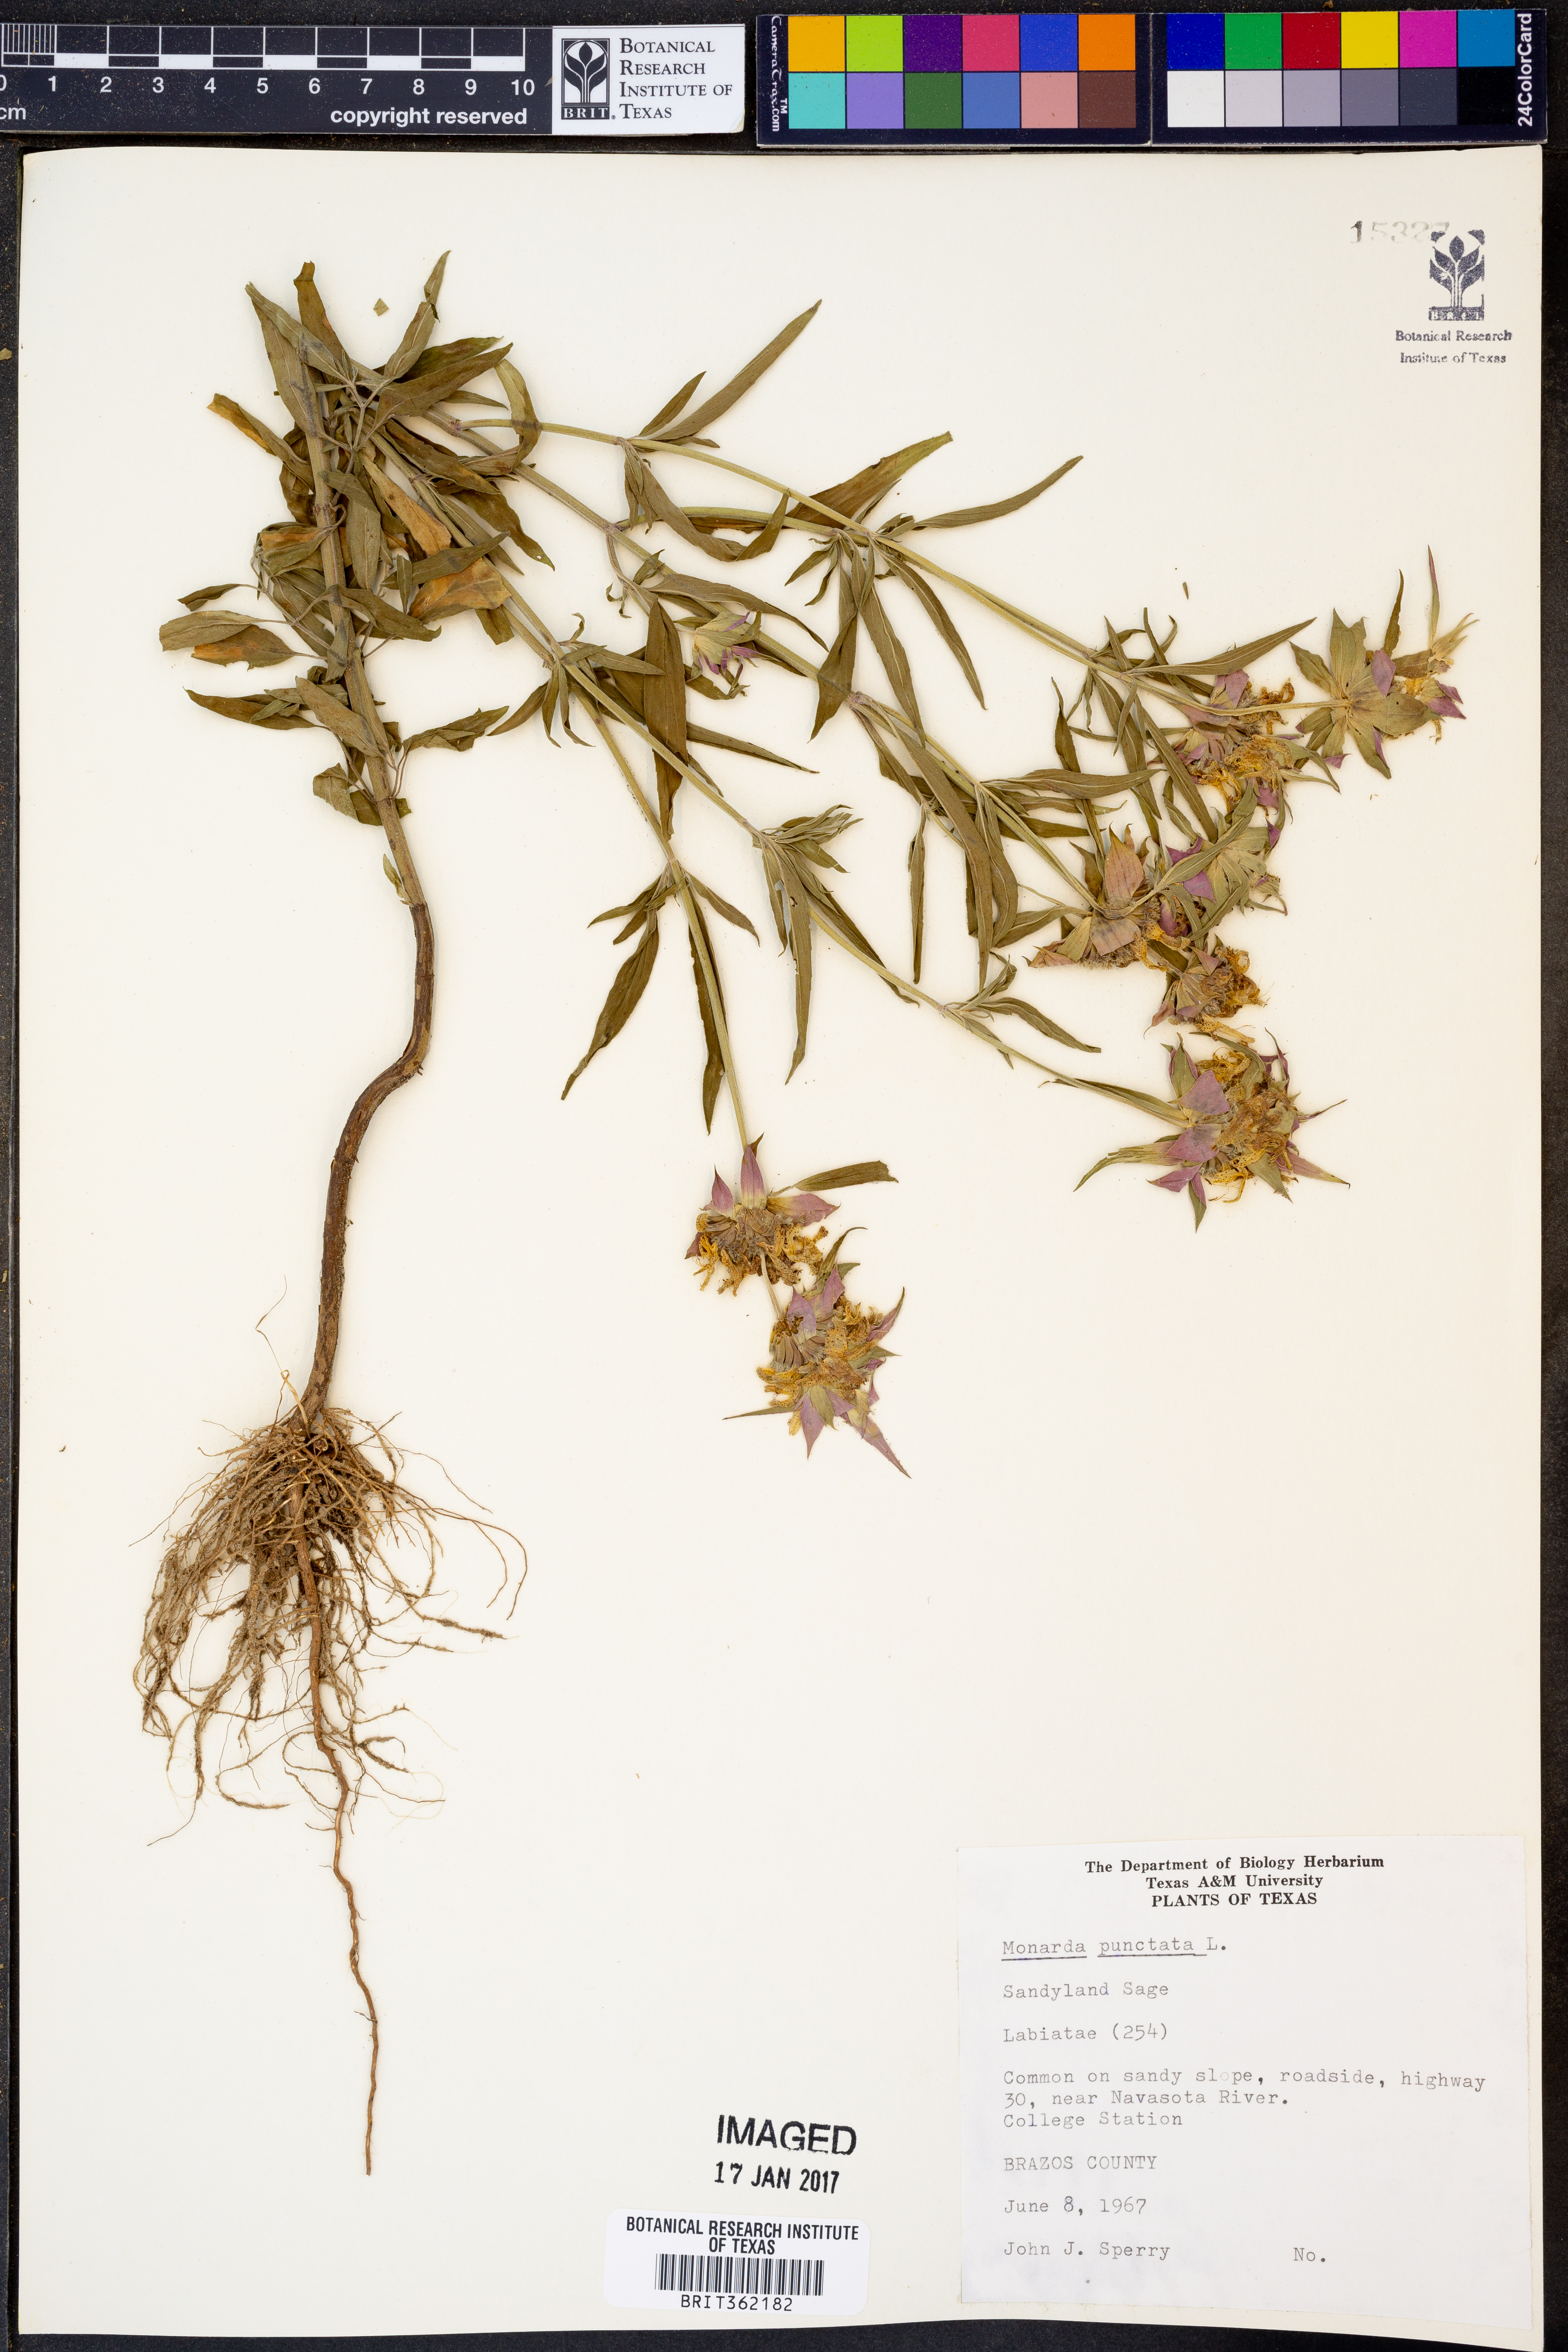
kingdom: Plantae
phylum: Tracheophyta
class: Magnoliopsida
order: Lamiales
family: Lamiaceae
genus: Monarda
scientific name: Monarda punctata
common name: Dotted monarda
